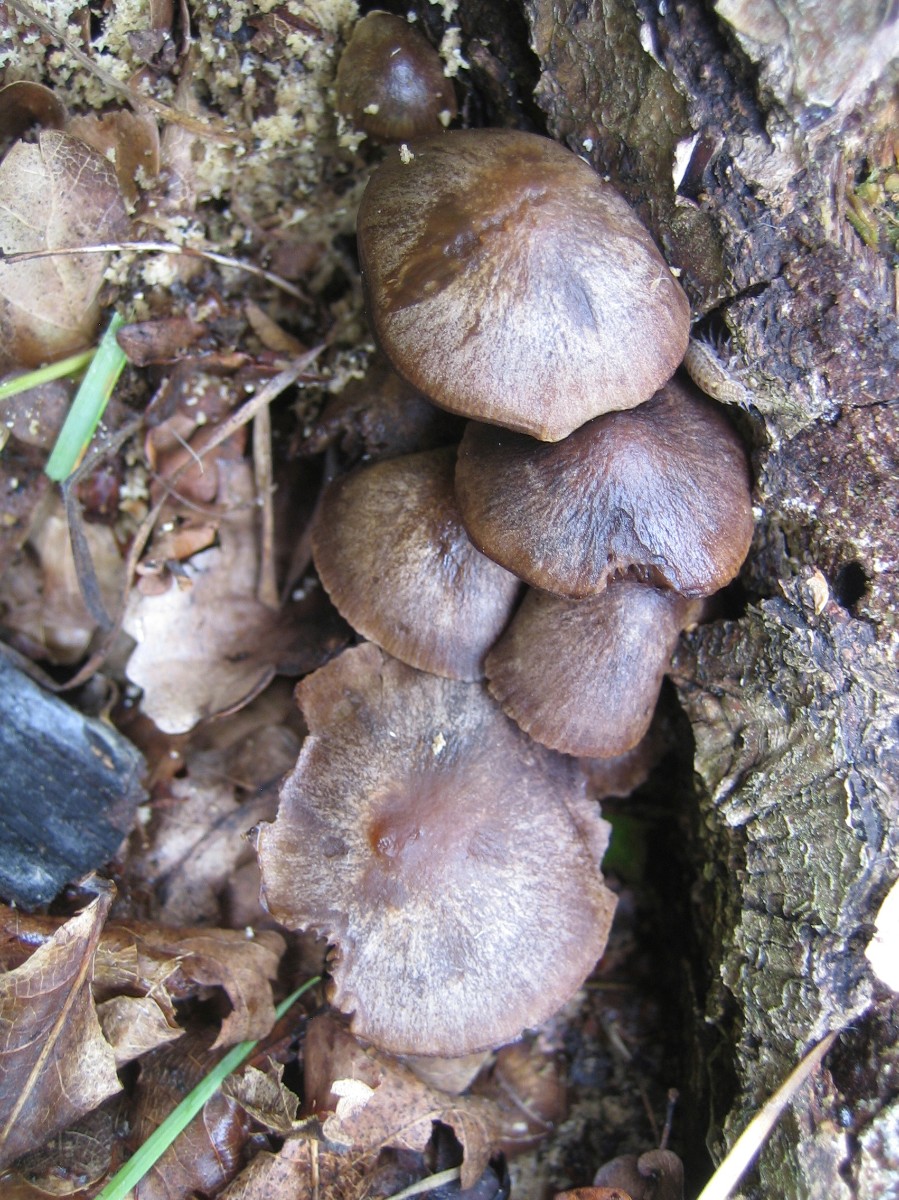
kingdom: Fungi
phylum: Basidiomycota
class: Agaricomycetes
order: Agaricales
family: Psathyrellaceae
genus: Psathyrella
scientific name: Psathyrella
